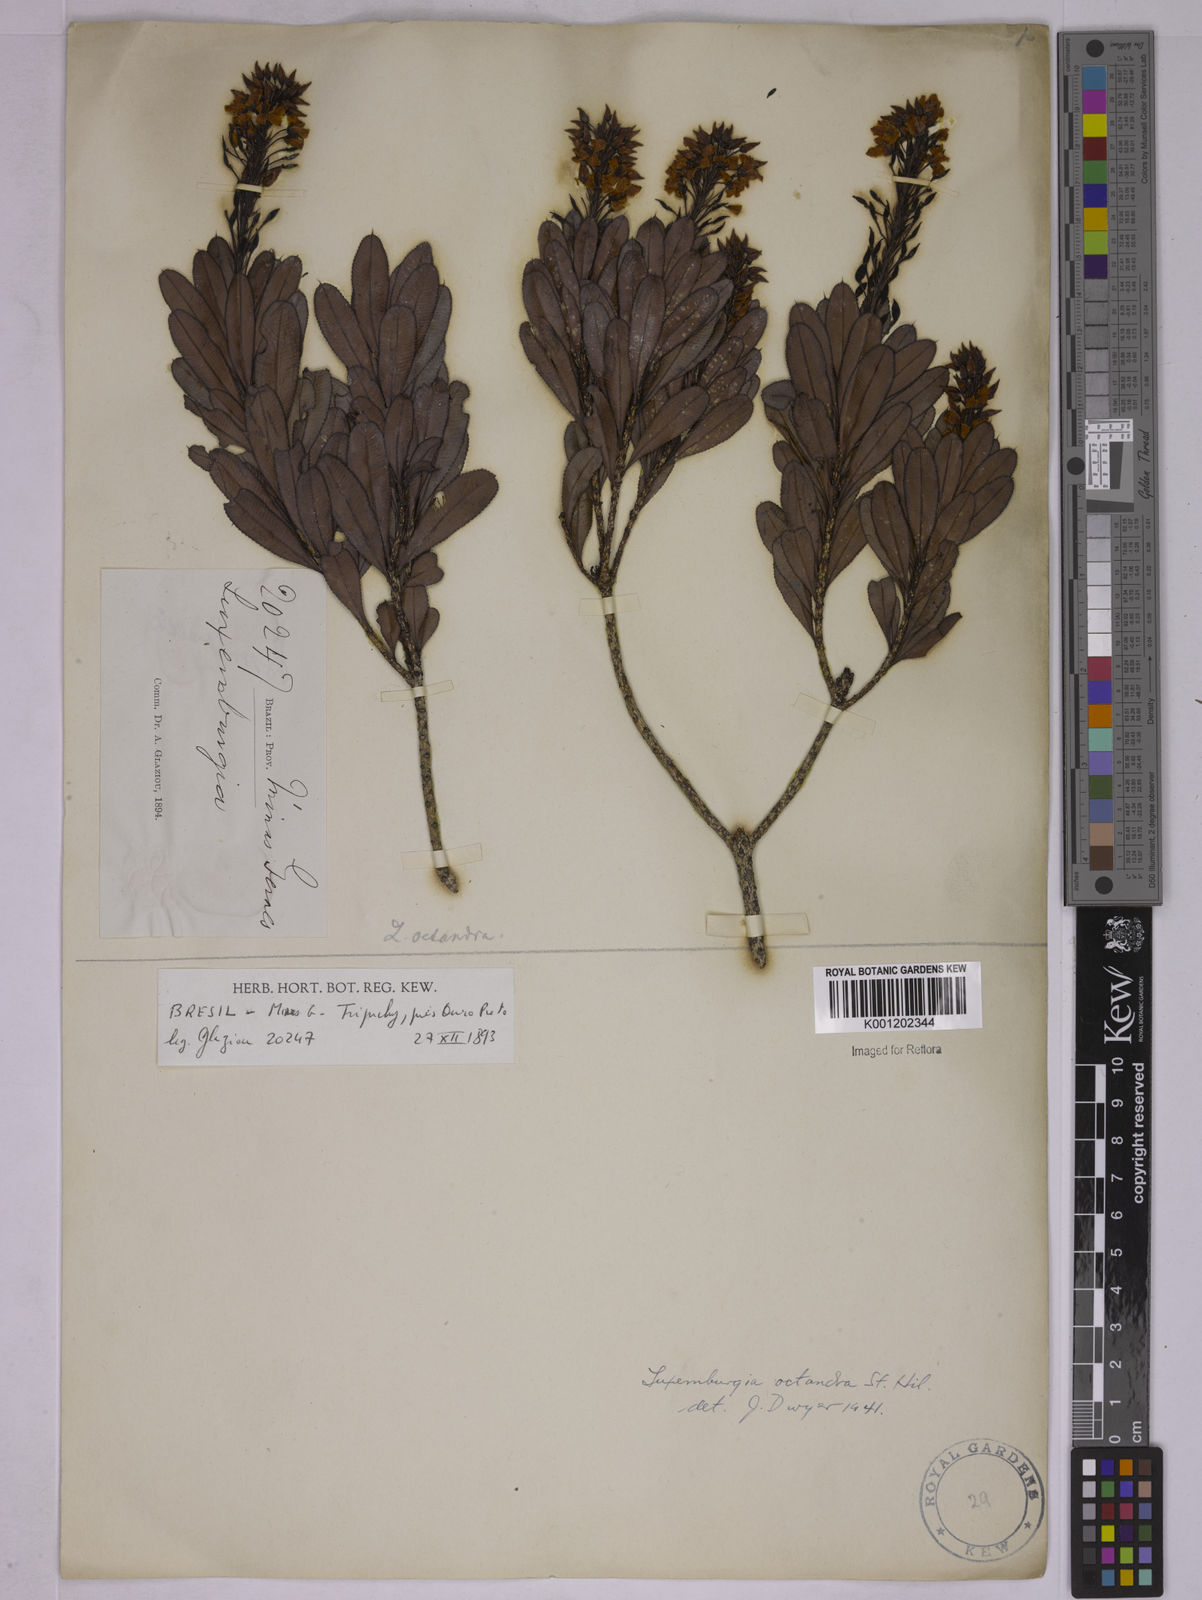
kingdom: Plantae
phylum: Tracheophyta
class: Magnoliopsida
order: Malpighiales
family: Ochnaceae
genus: Luxemburgia
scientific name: Luxemburgia octandra
